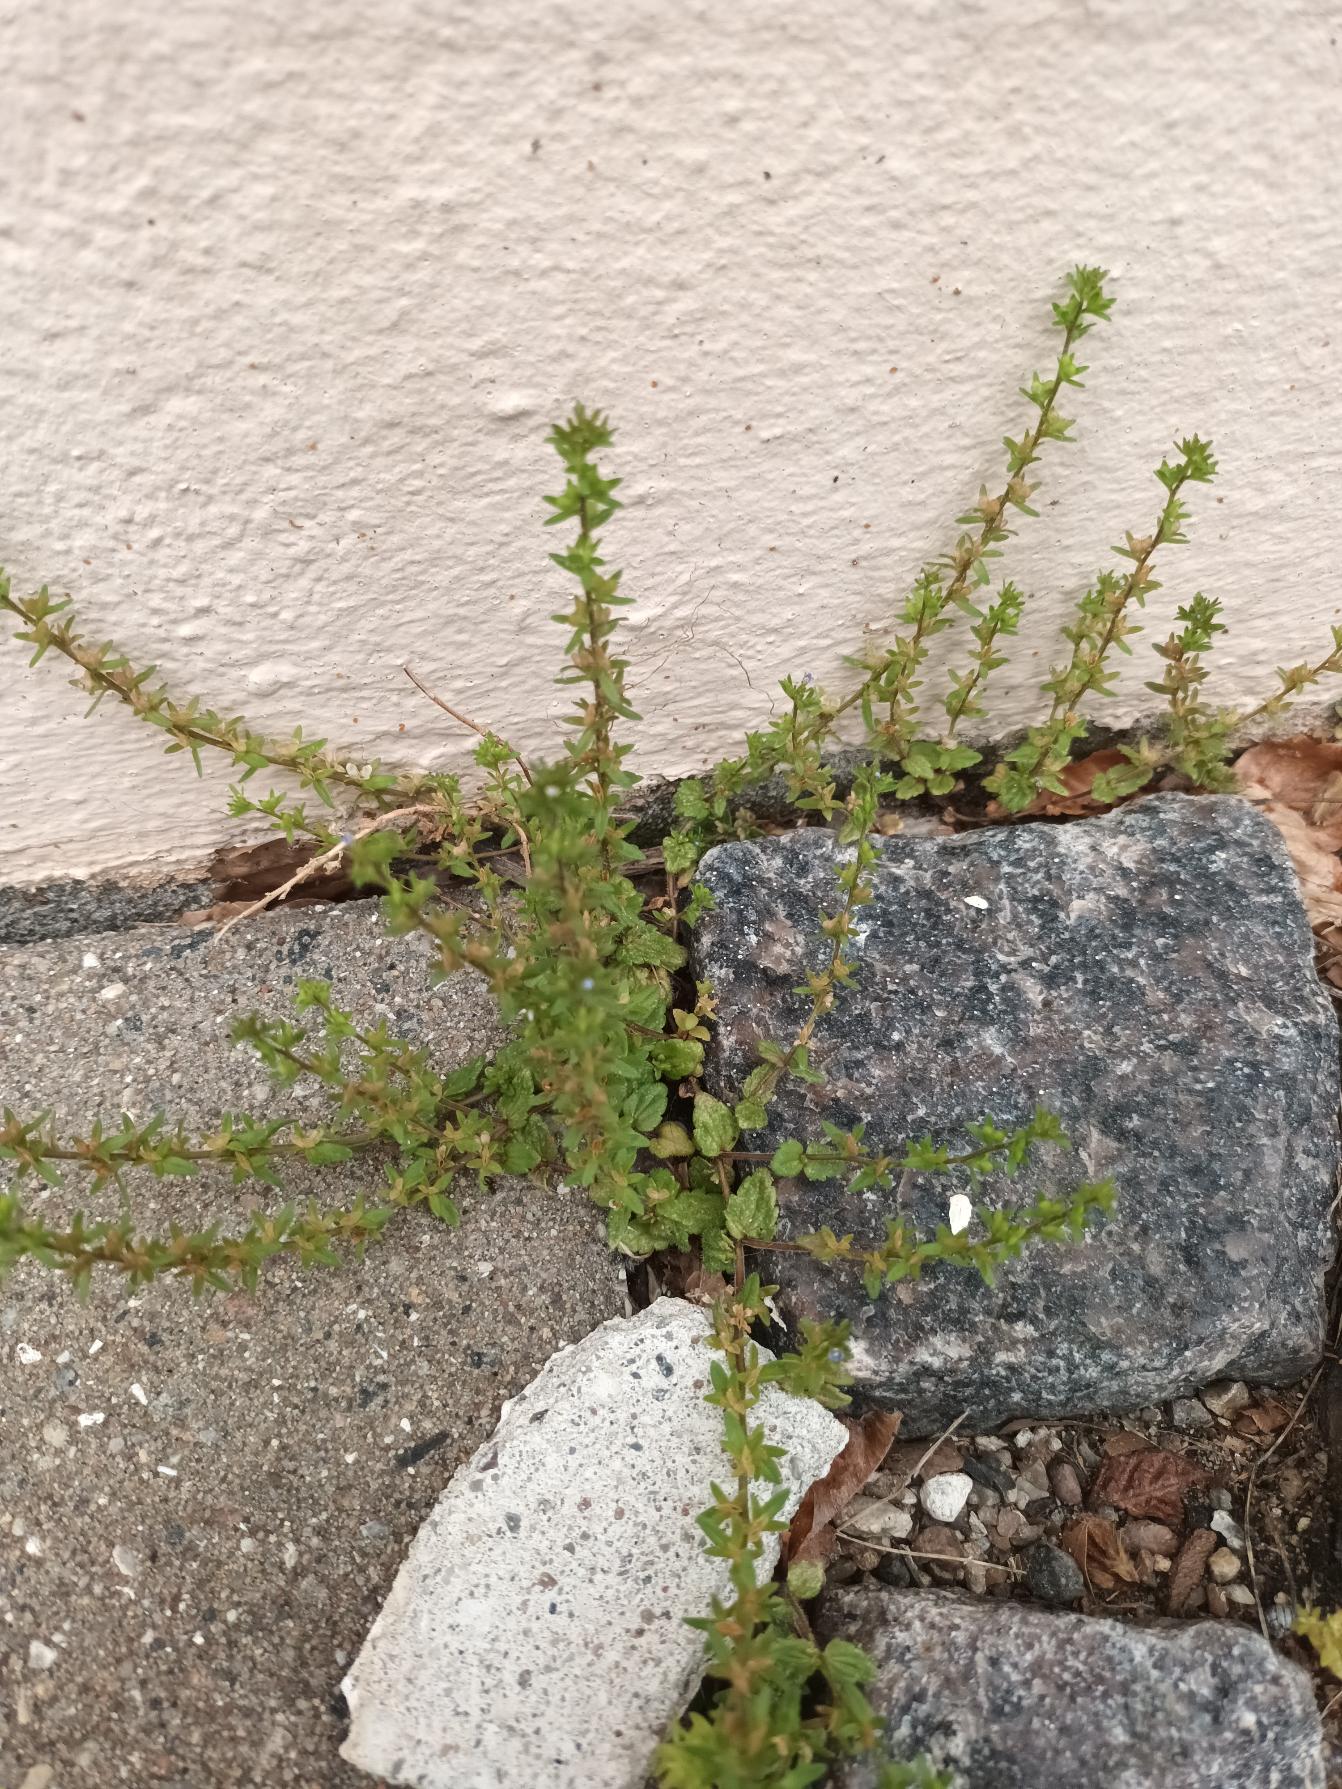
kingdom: Plantae
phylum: Tracheophyta
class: Magnoliopsida
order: Lamiales
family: Plantaginaceae
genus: Veronica
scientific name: Veronica arvensis
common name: Mark-ærenpris
